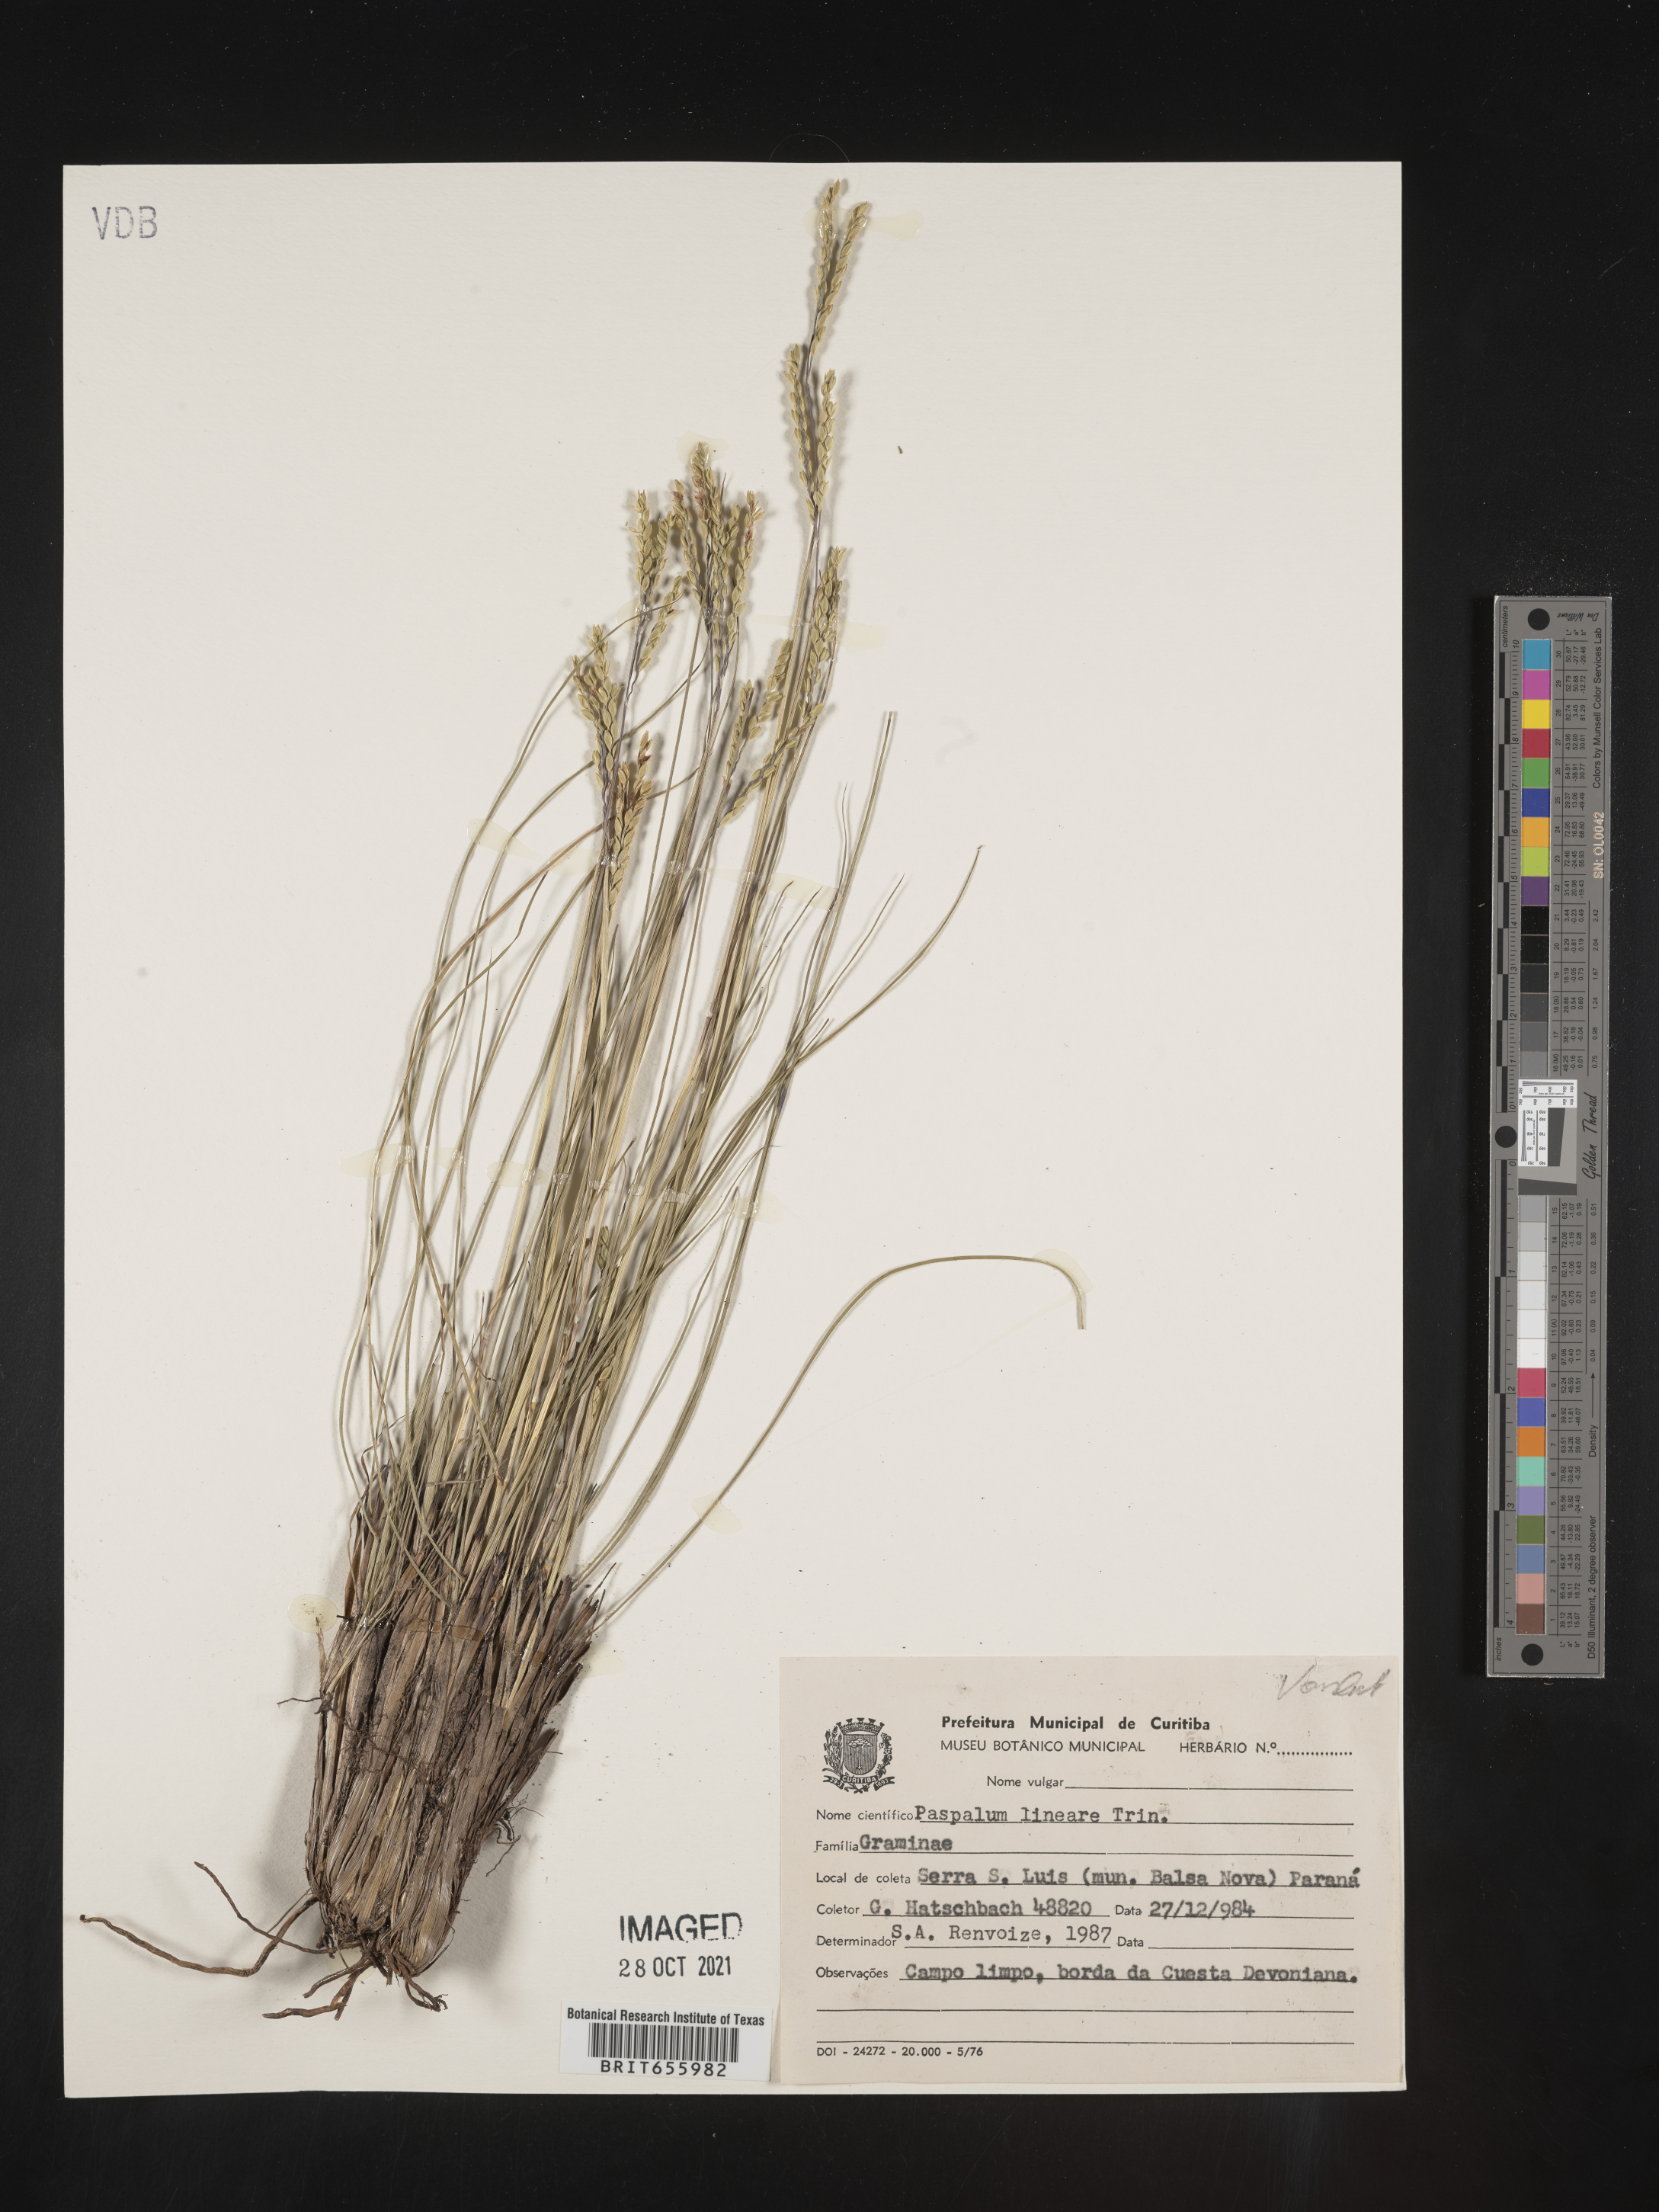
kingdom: Plantae
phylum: Tracheophyta
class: Liliopsida
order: Poales
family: Poaceae
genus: Paspalum
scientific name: Paspalum
